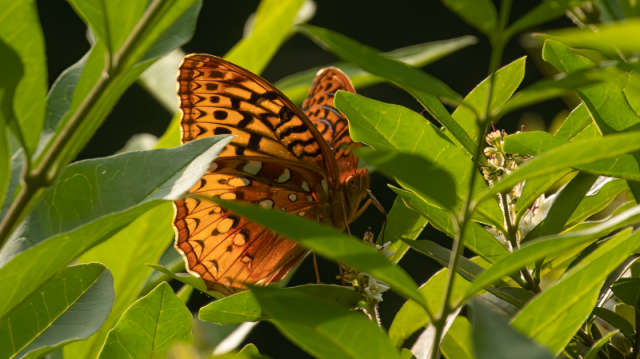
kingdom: Animalia
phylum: Arthropoda
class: Insecta
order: Lepidoptera
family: Nymphalidae
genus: Speyeria
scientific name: Speyeria cybele
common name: Great Spangled Fritillary
